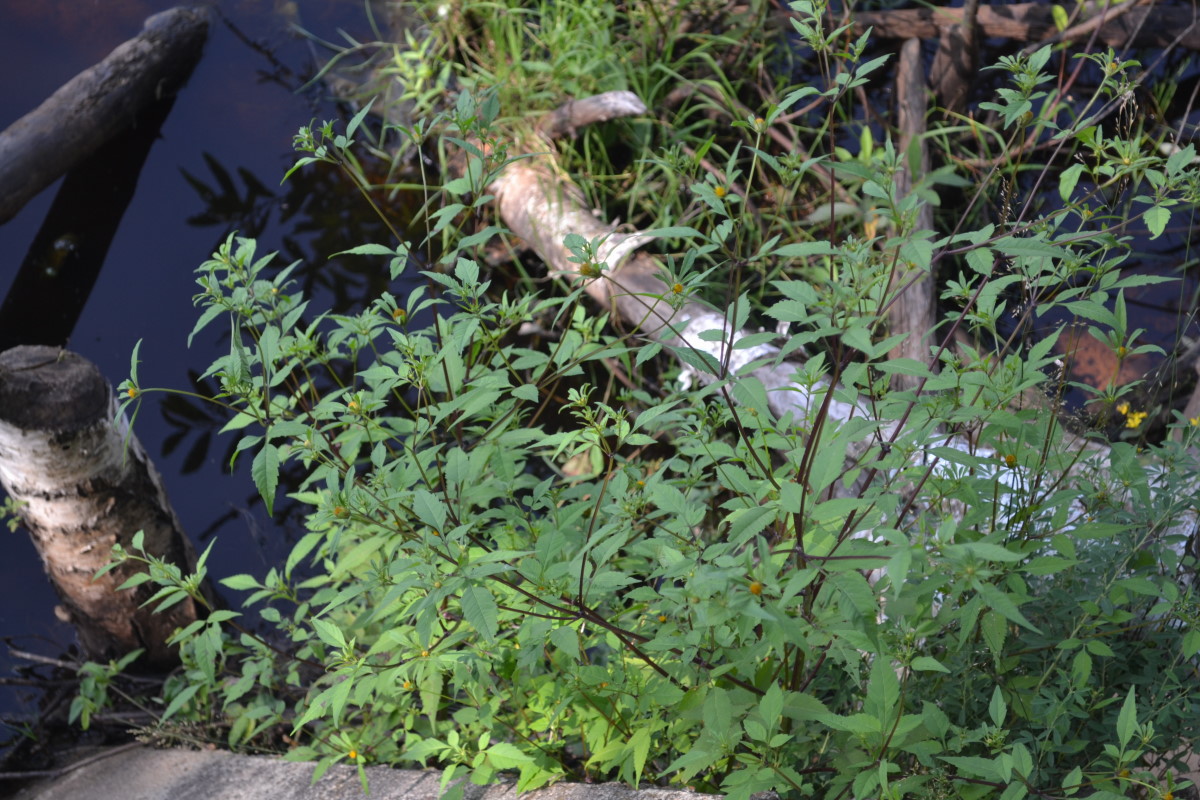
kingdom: Plantae
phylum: Tracheophyta
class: Magnoliopsida
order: Asterales
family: Asteraceae
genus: Bidens
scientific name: Bidens frondosa
